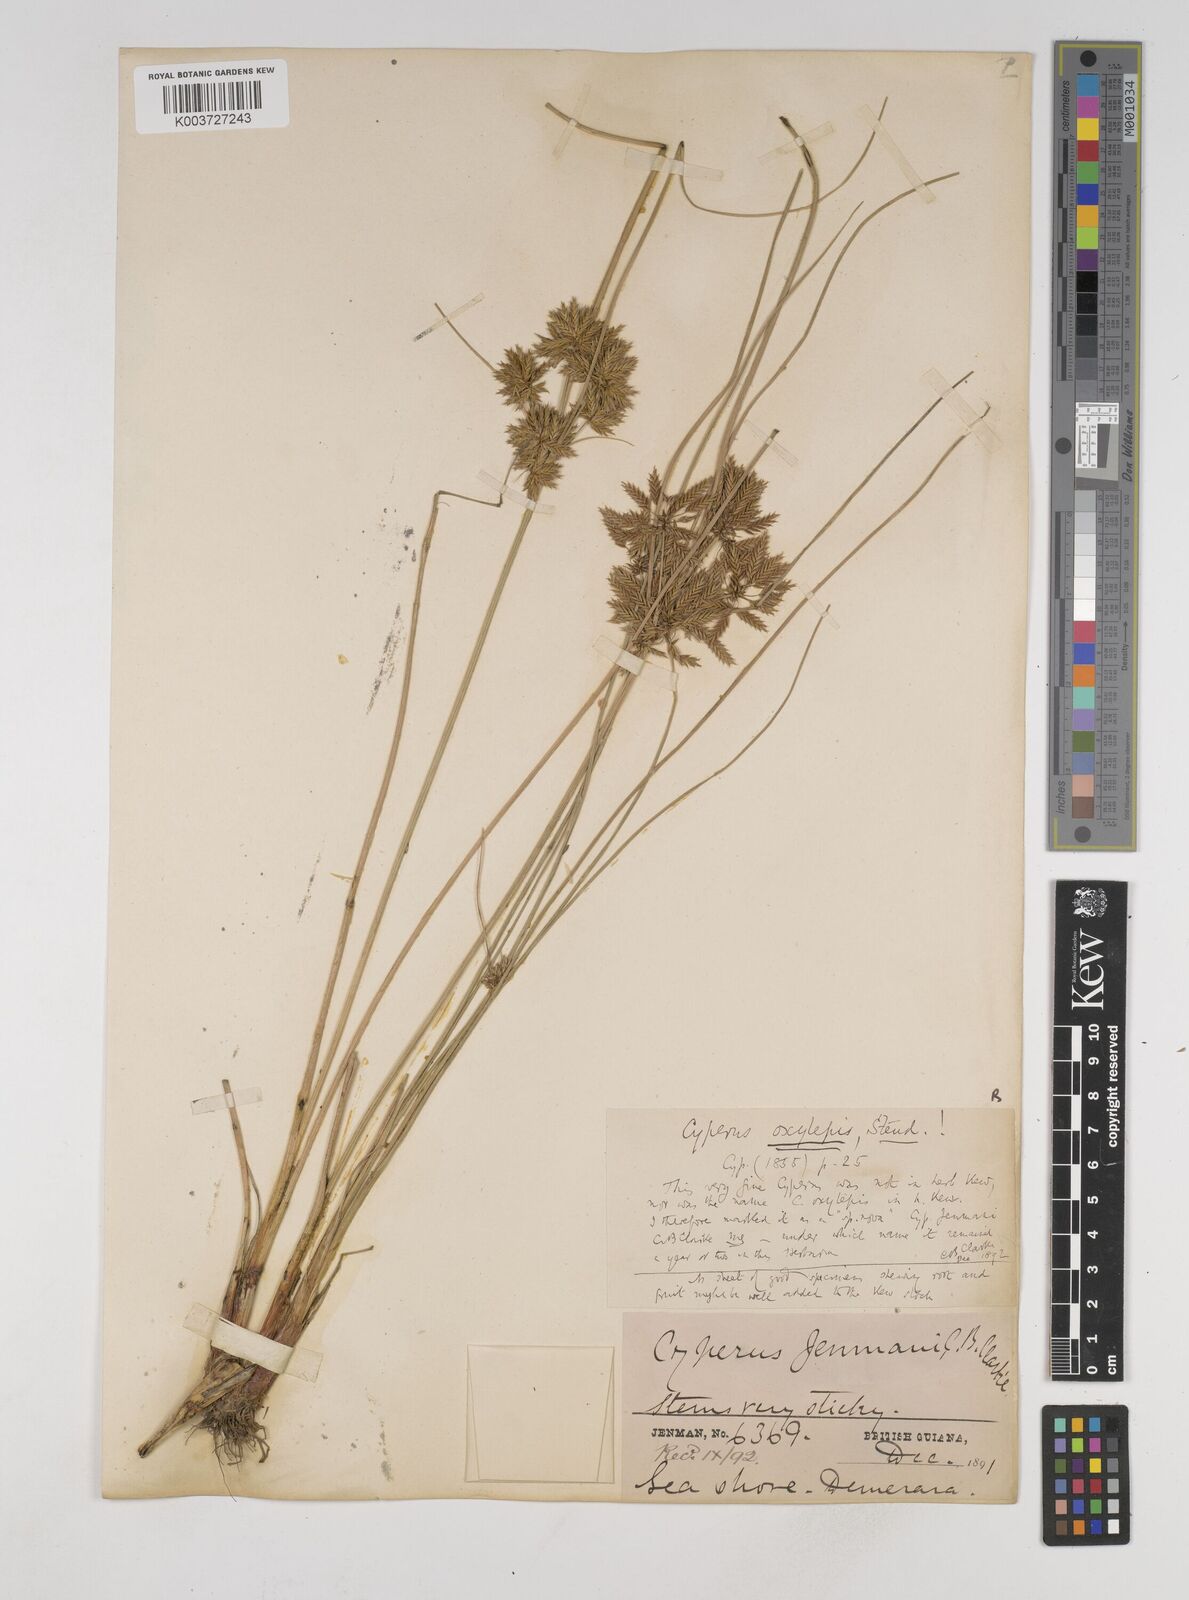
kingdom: Plantae
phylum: Tracheophyta
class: Liliopsida
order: Poales
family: Cyperaceae
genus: Cyperus
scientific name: Cyperus elegans
